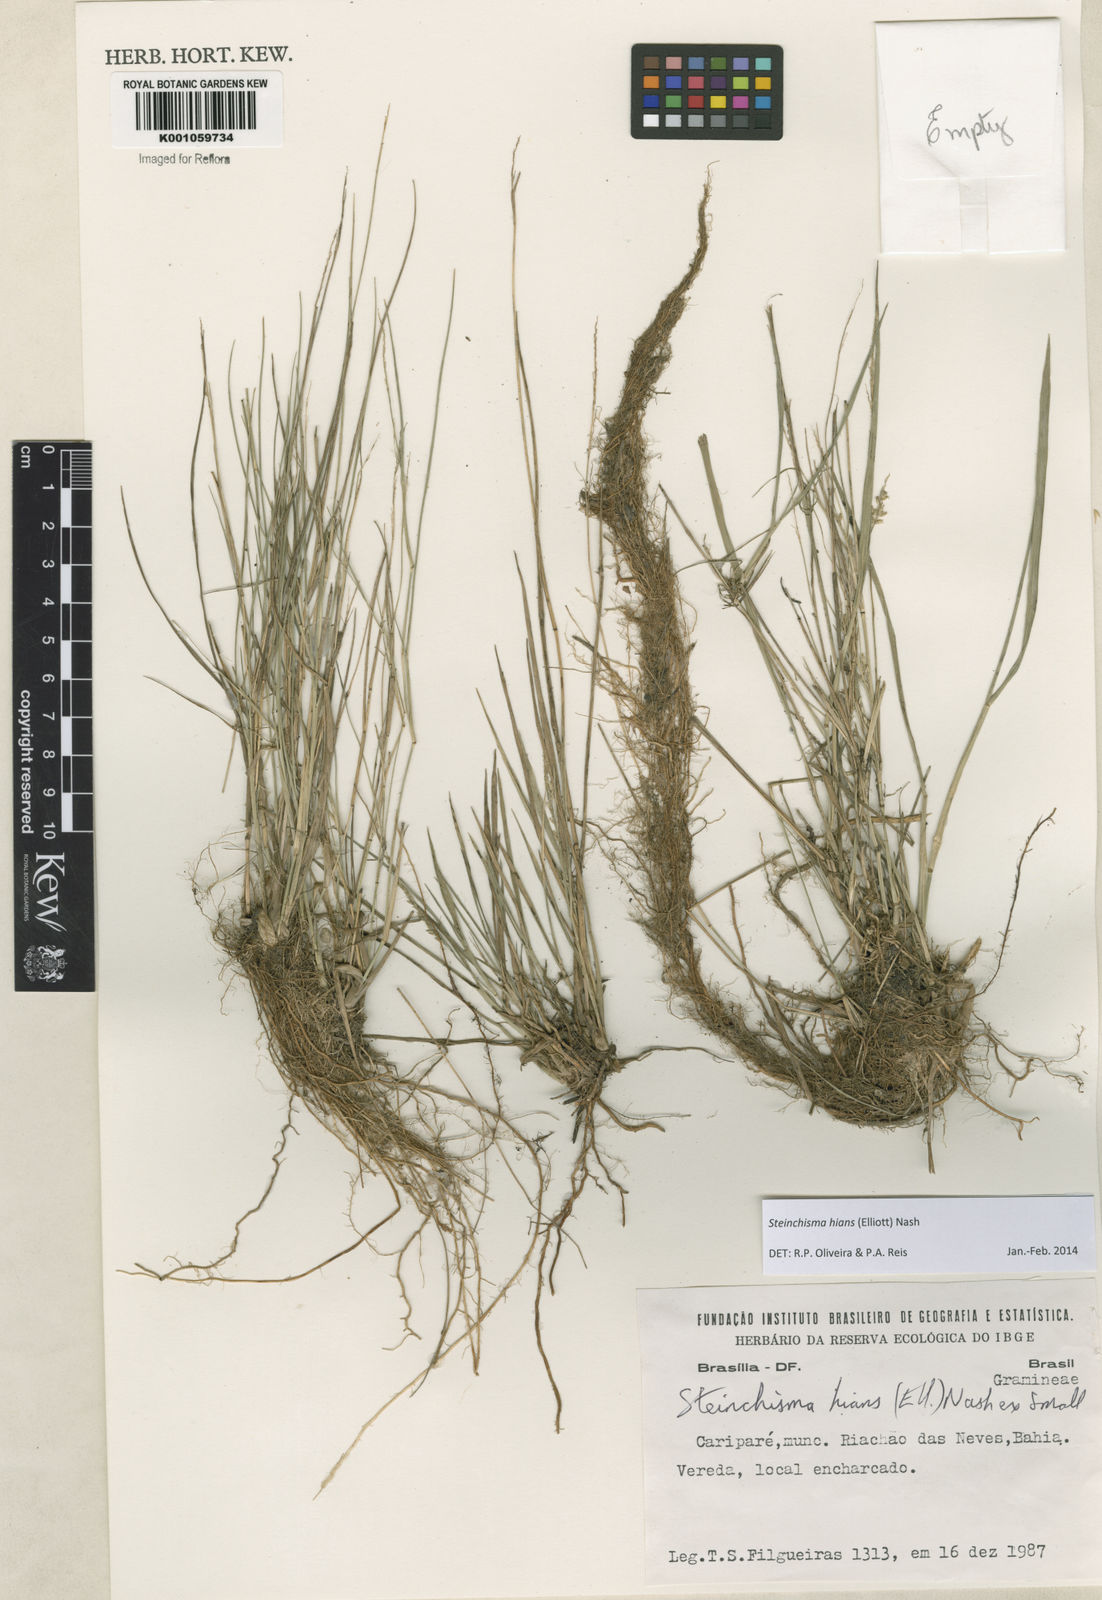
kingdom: Plantae
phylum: Tracheophyta
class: Liliopsida
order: Poales
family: Poaceae
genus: Steinchisma
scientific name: Steinchisma hians
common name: Gaping panic grass
